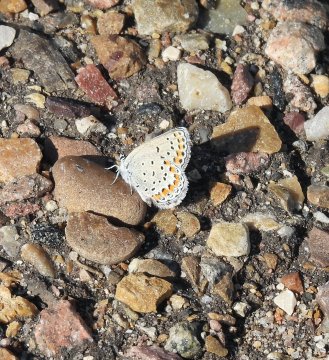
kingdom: Animalia
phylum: Arthropoda
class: Insecta
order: Lepidoptera
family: Lycaenidae
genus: Lycaeides
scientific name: Lycaeides melissa
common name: Melissa Blue
